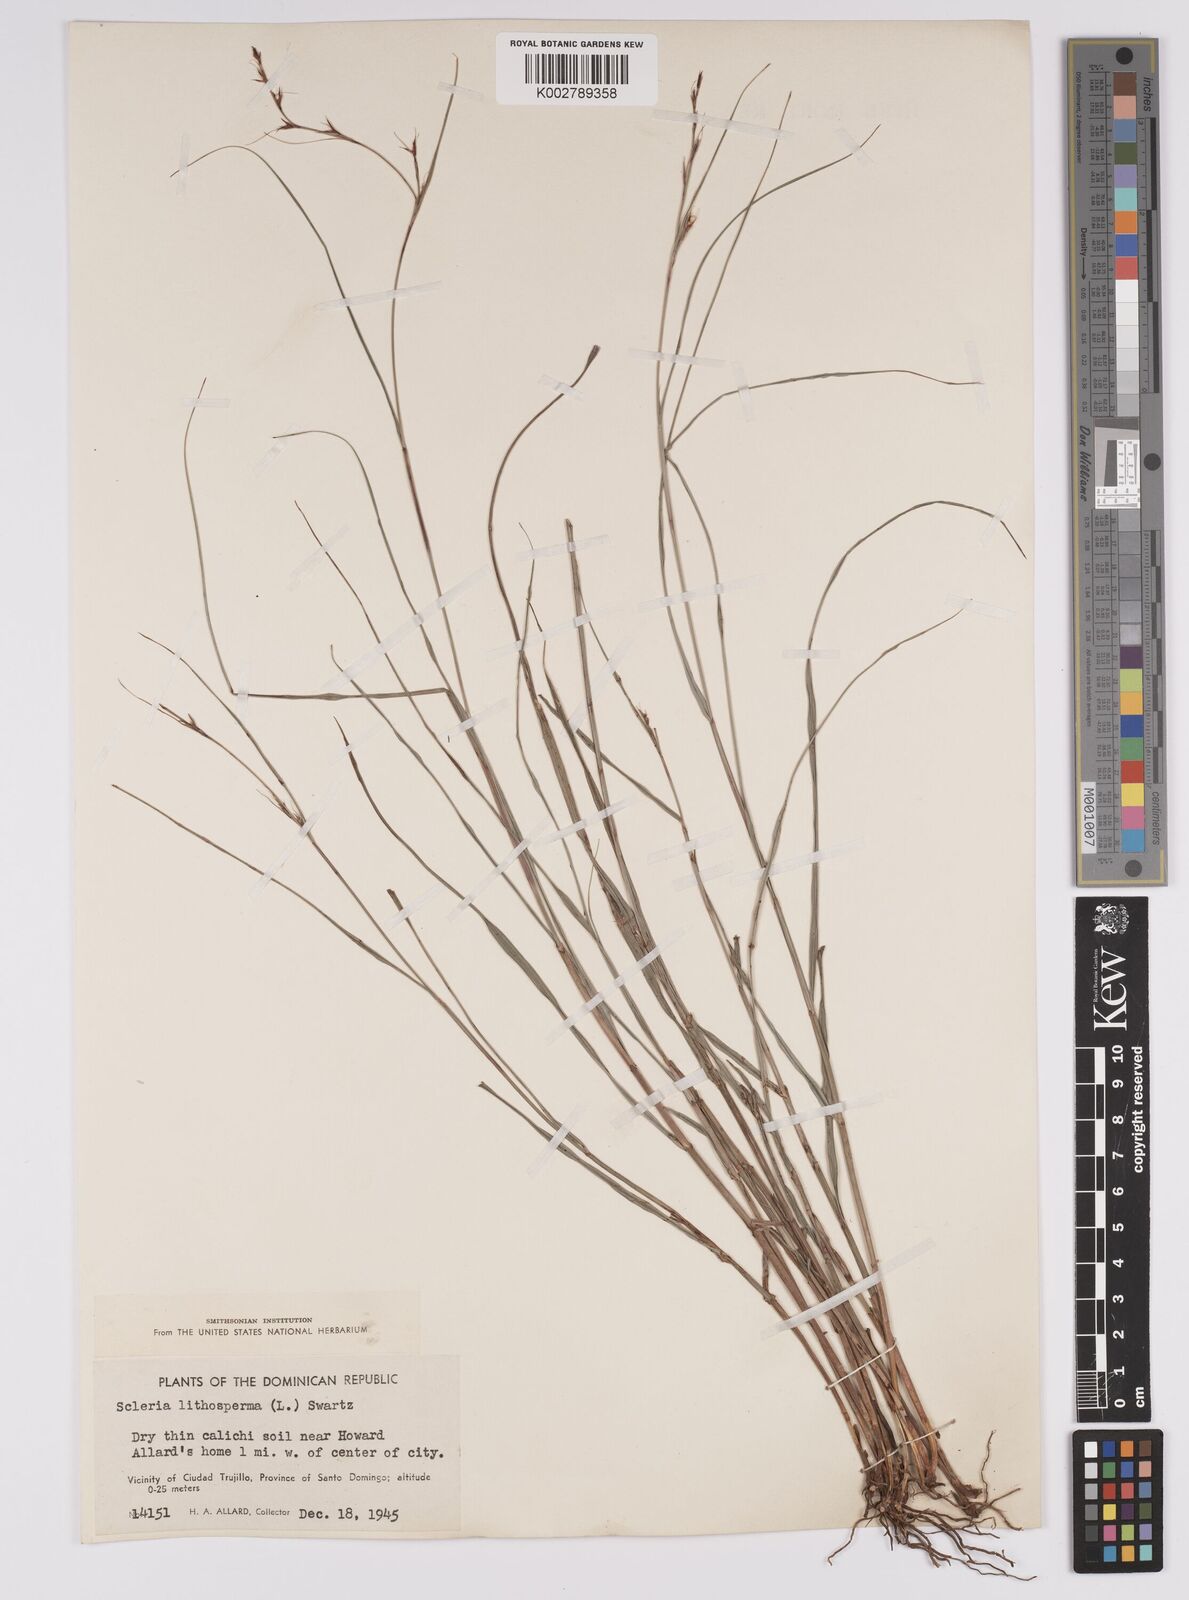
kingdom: Plantae
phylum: Tracheophyta
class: Liliopsida
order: Poales
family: Cyperaceae
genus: Scleria
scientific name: Scleria lithosperma
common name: Florida keys nut-rush
